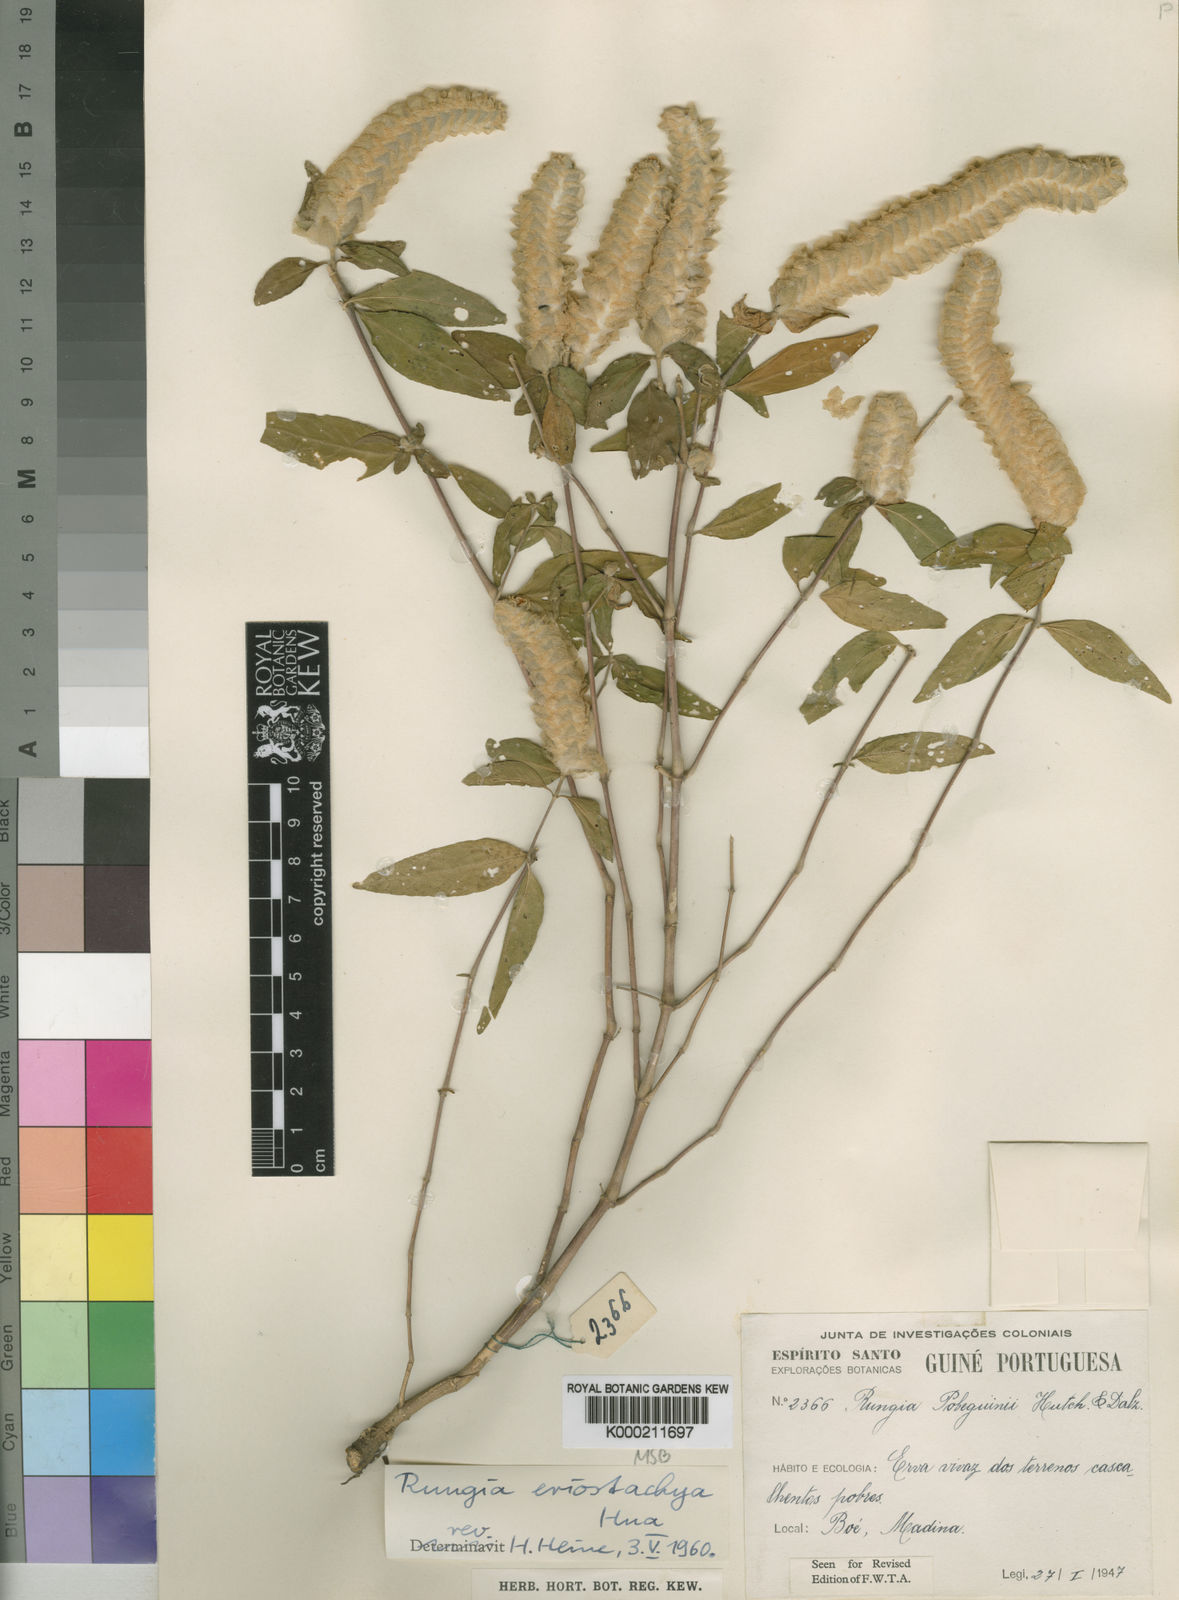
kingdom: Plantae
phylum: Tracheophyta
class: Magnoliopsida
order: Lamiales
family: Acanthaceae
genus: Rungia
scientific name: Rungia eriostachya
